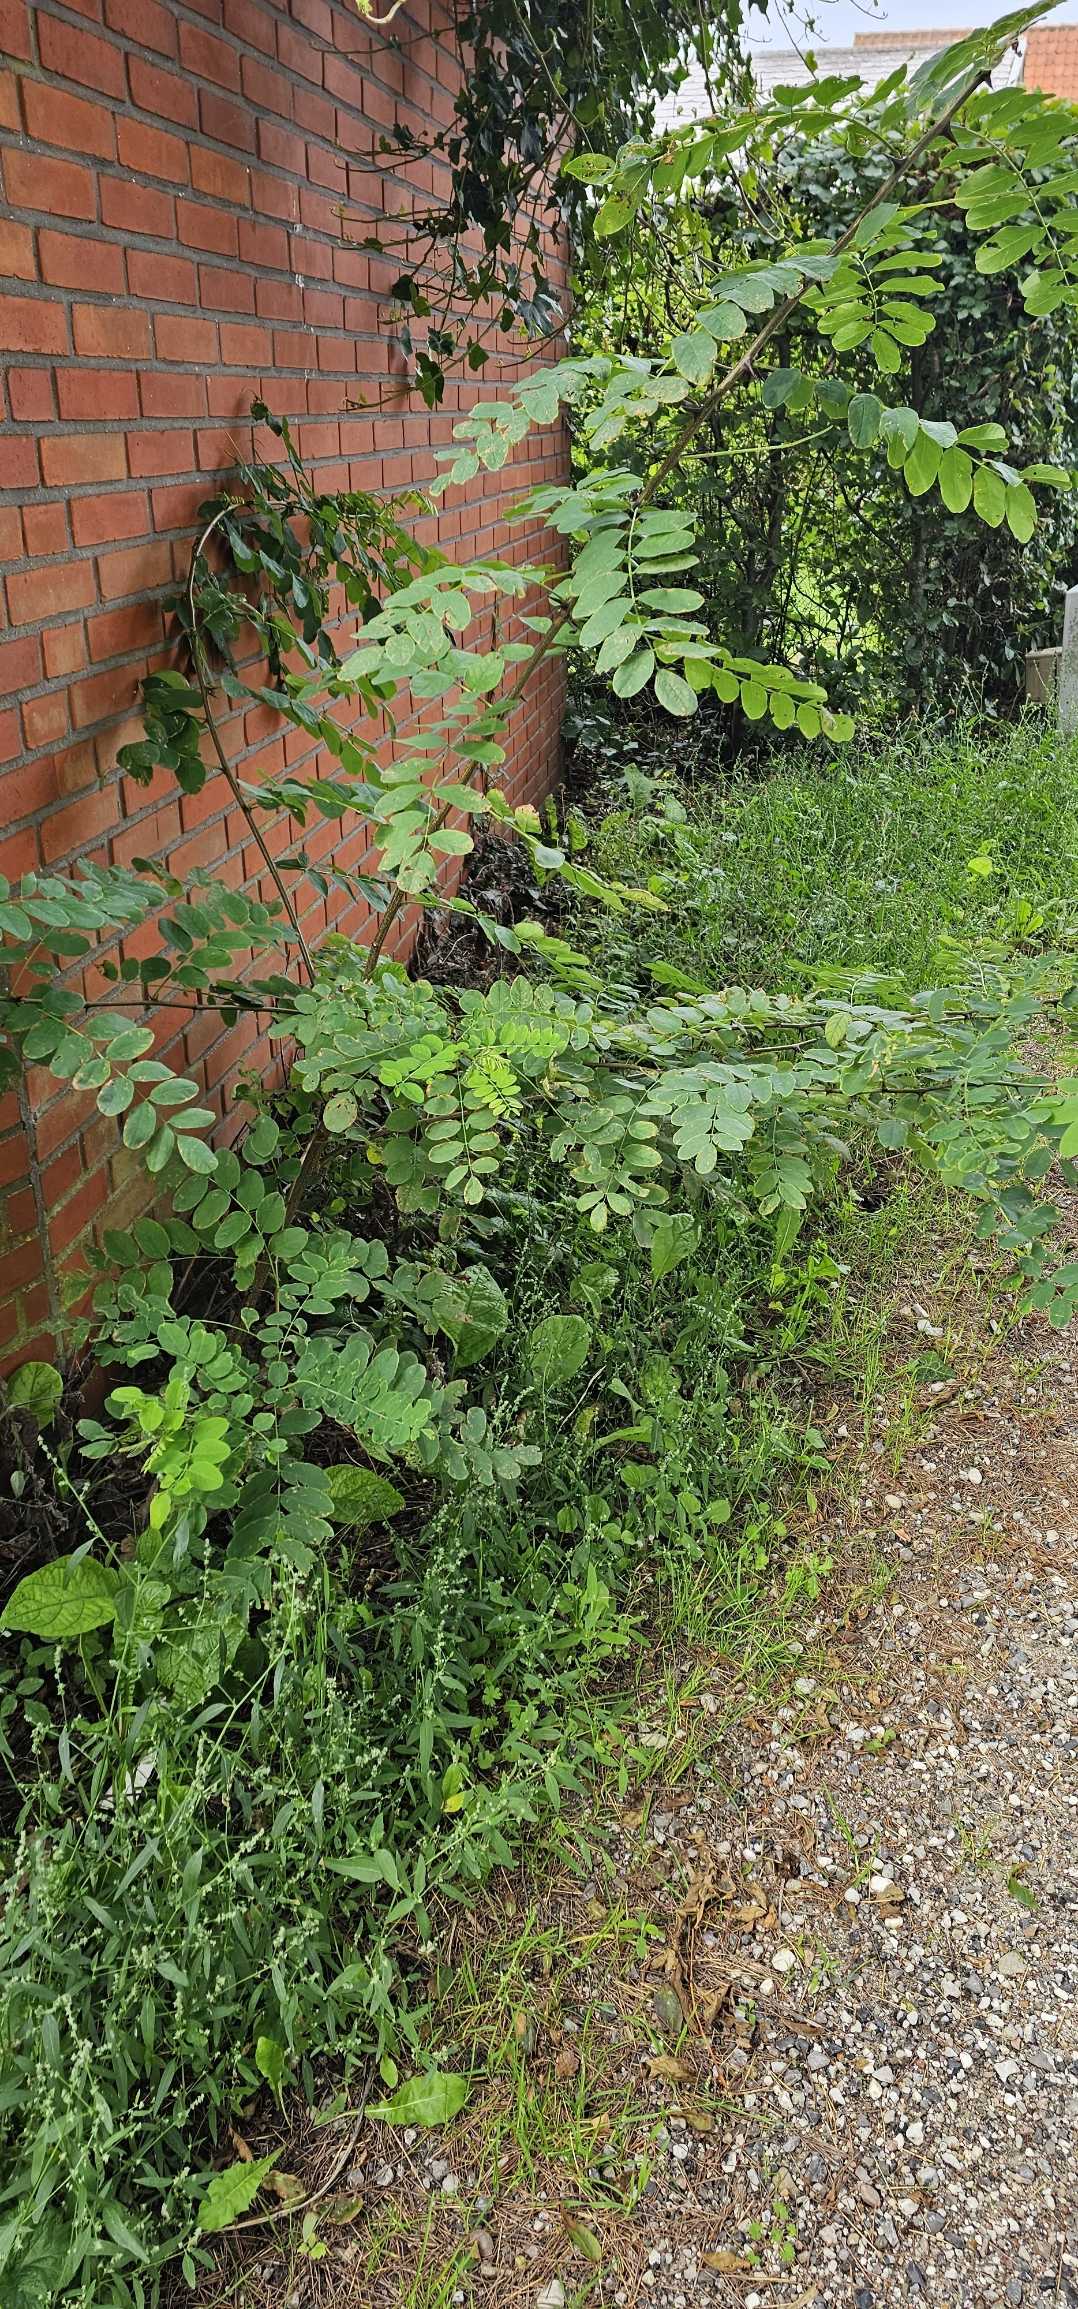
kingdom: Plantae
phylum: Tracheophyta
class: Magnoliopsida
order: Fabales
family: Fabaceae
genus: Robinia
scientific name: Robinia pseudoacacia
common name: Robinie
